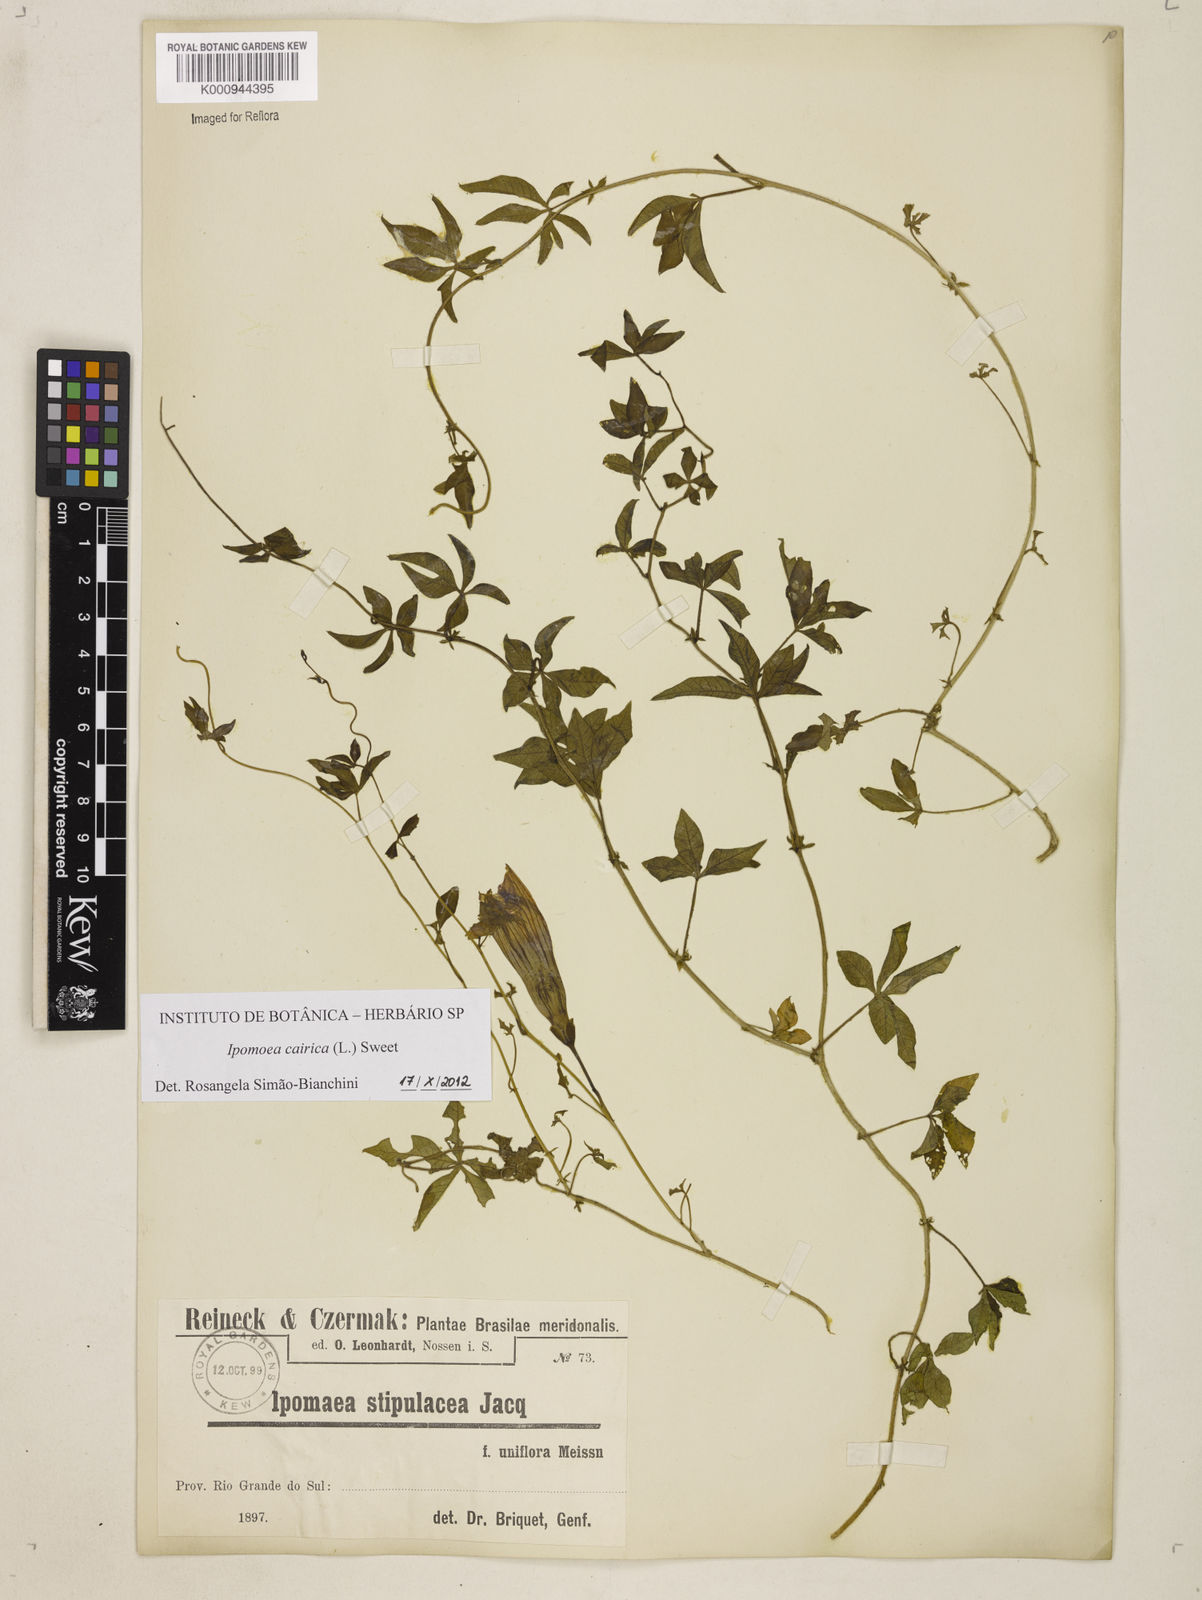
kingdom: Plantae
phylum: Tracheophyta
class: Magnoliopsida
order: Solanales
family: Convolvulaceae
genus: Ipomoea
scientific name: Ipomoea cairica
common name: Mile a minute vine
